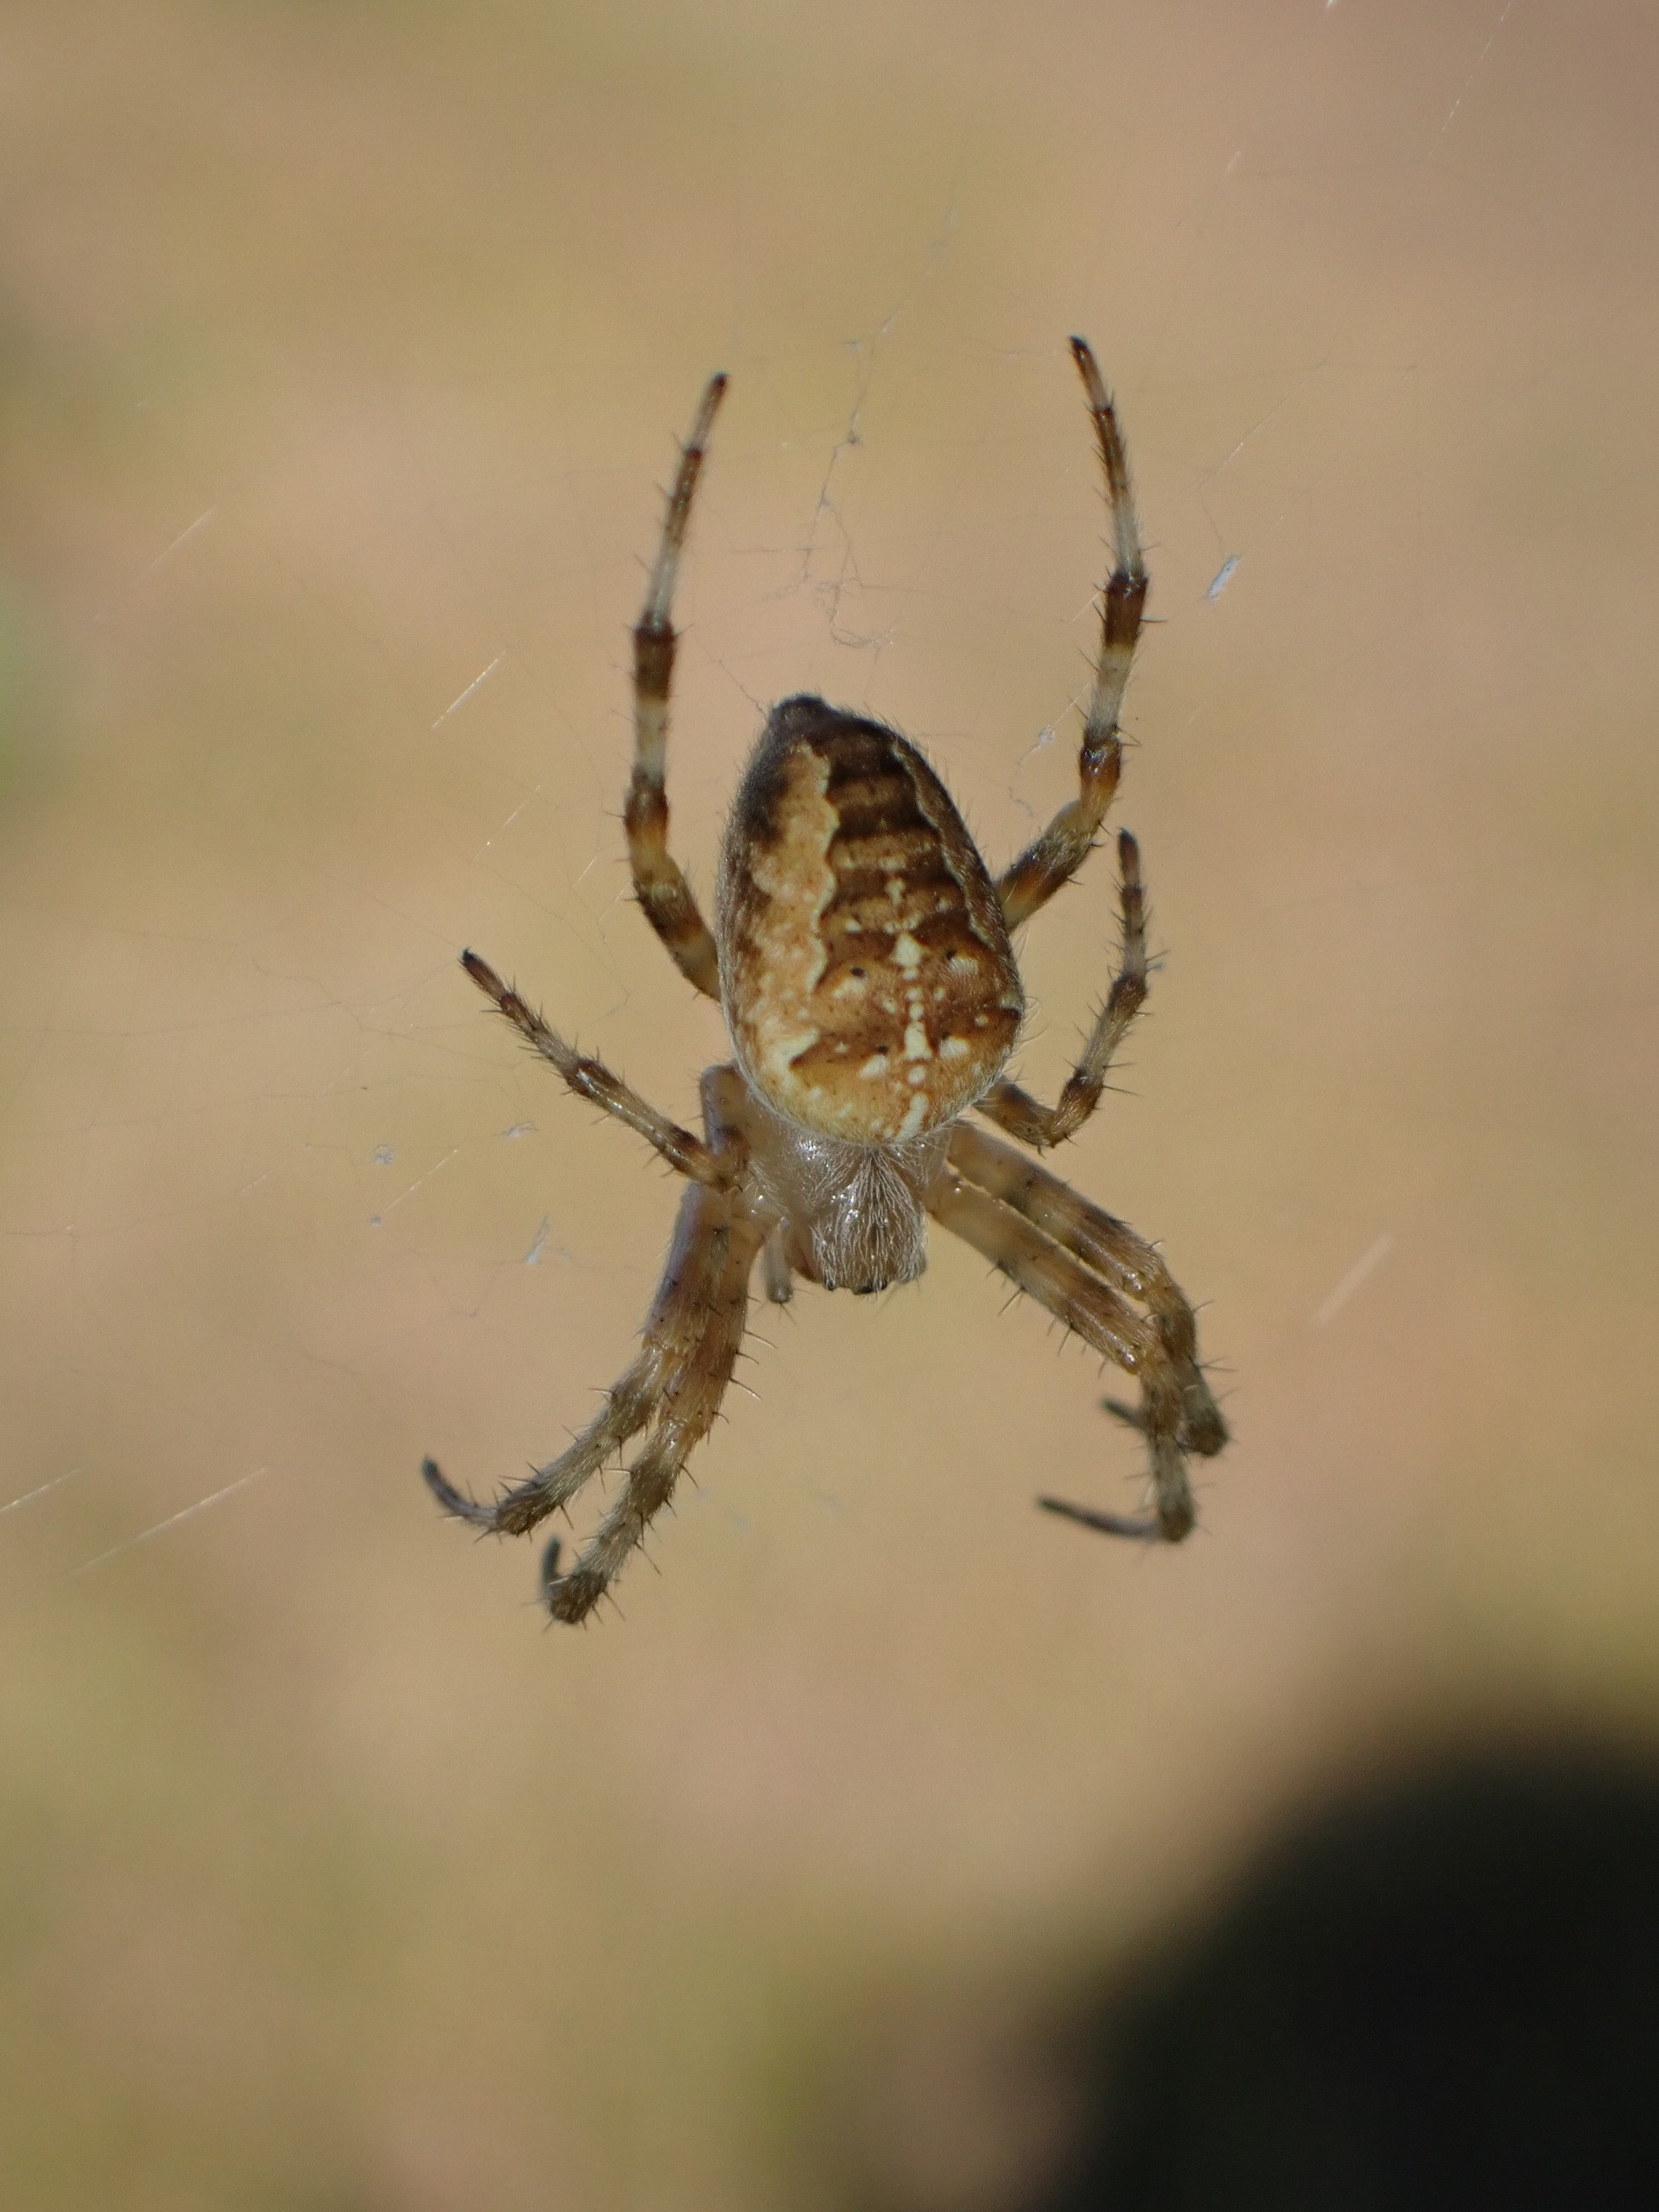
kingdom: Animalia
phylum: Arthropoda
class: Arachnida
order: Araneae
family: Araneidae
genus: Araneus
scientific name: Araneus diadematus
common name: Korsedderkop
